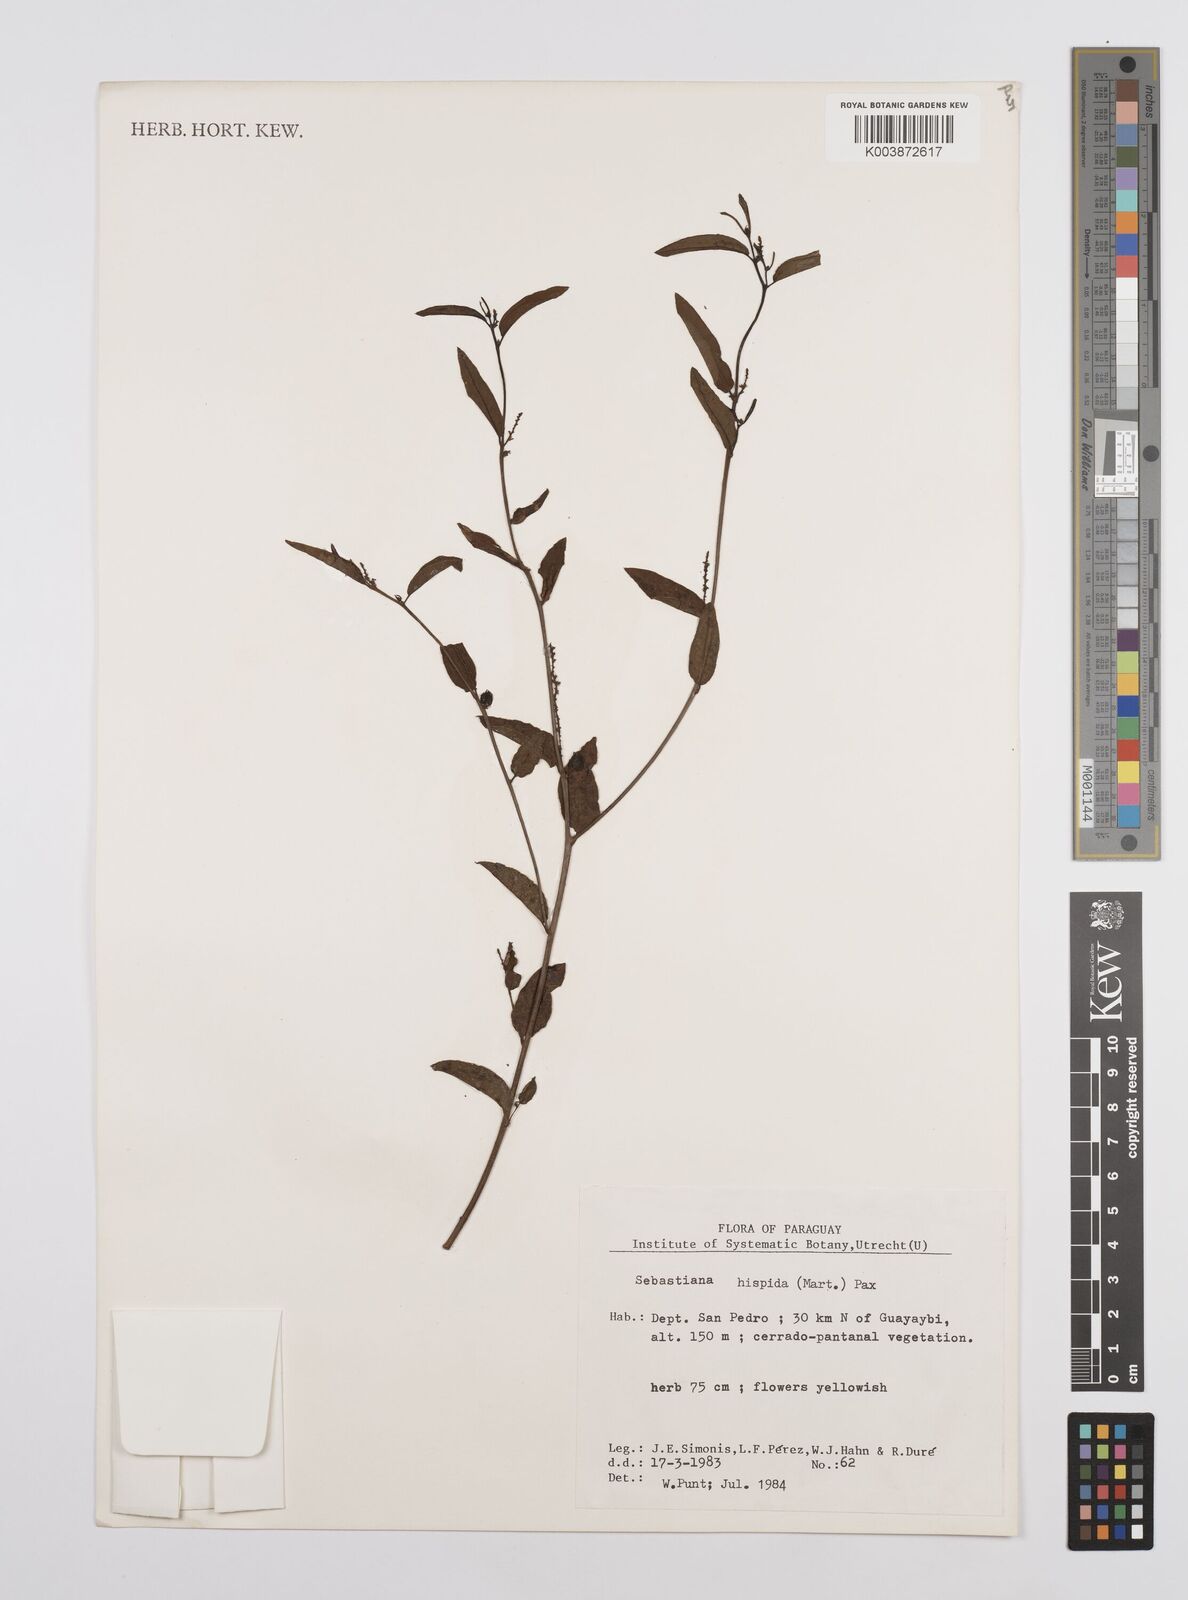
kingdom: Plantae
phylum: Tracheophyta
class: Magnoliopsida
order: Malpighiales
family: Euphorbiaceae
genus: Microstachys
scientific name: Microstachys hispida
